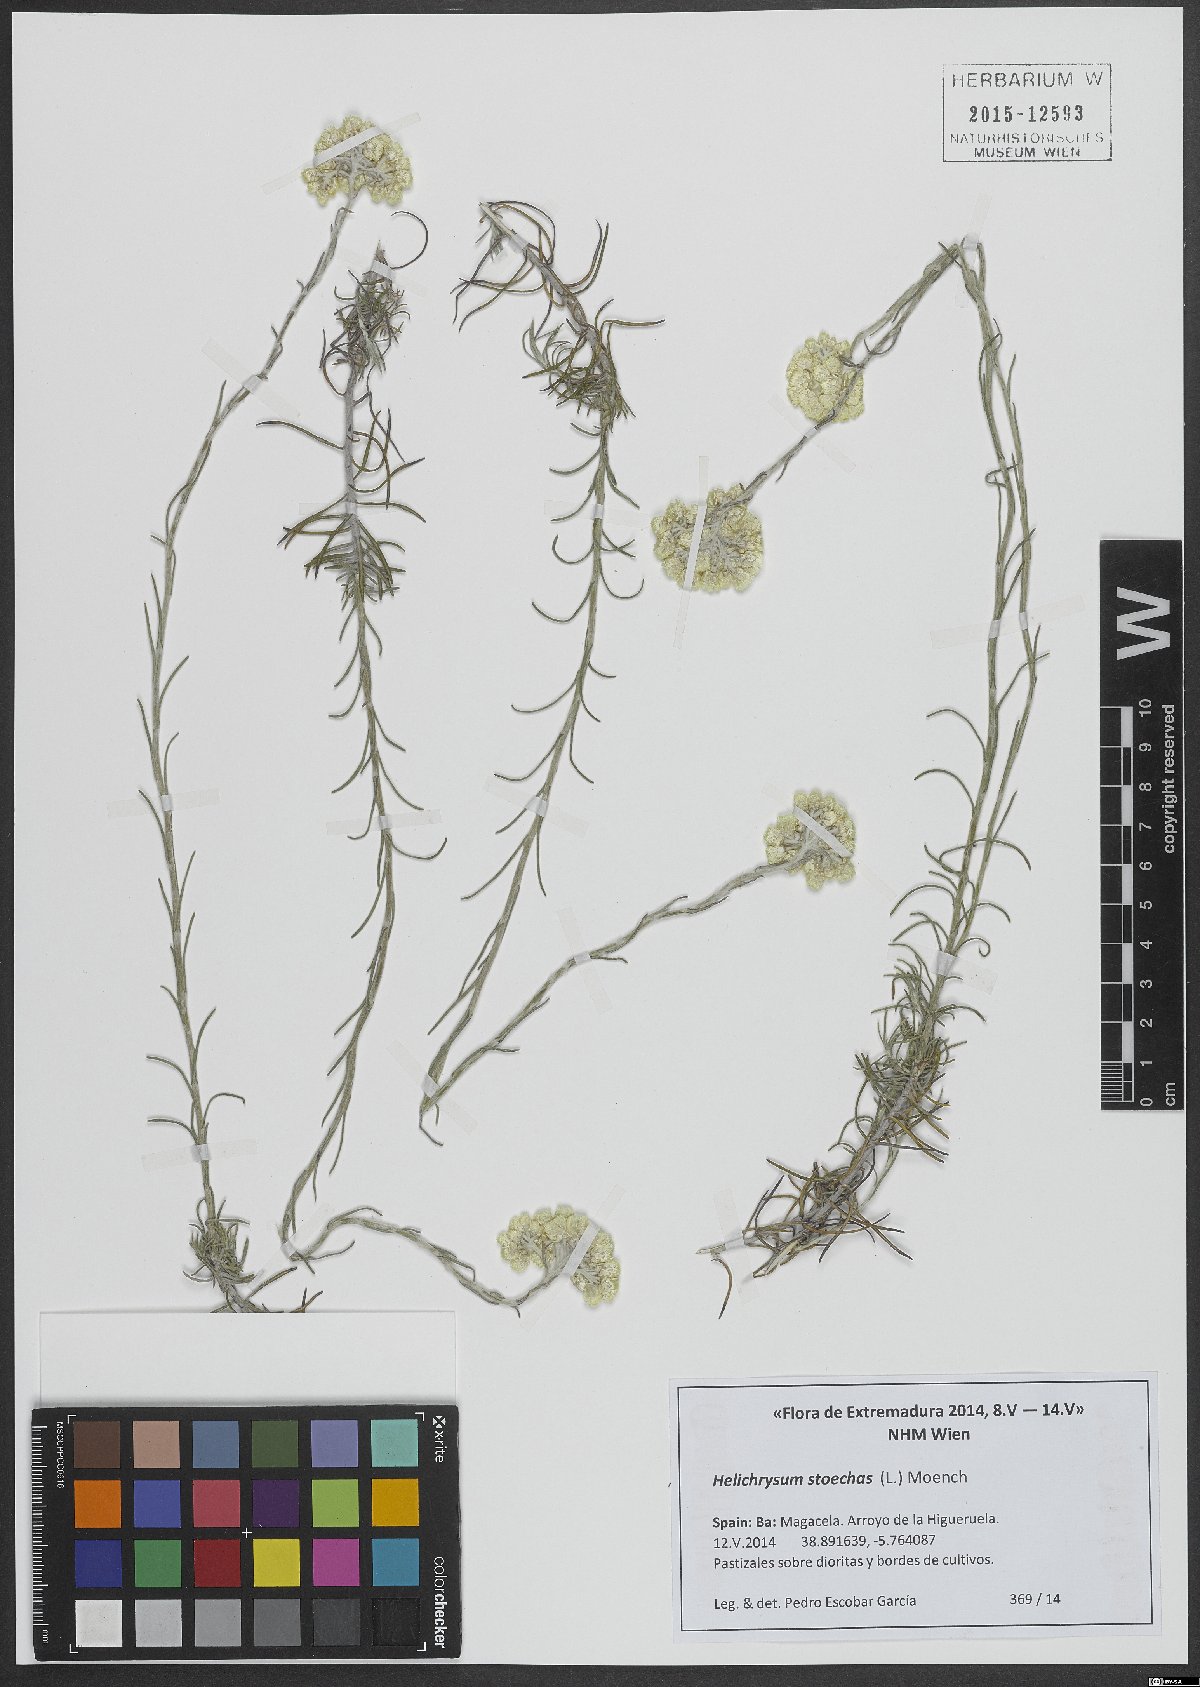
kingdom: Plantae
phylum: Tracheophyta
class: Magnoliopsida
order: Asterales
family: Asteraceae
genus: Helichrysum
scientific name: Helichrysum stoechas
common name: Goldilocks
